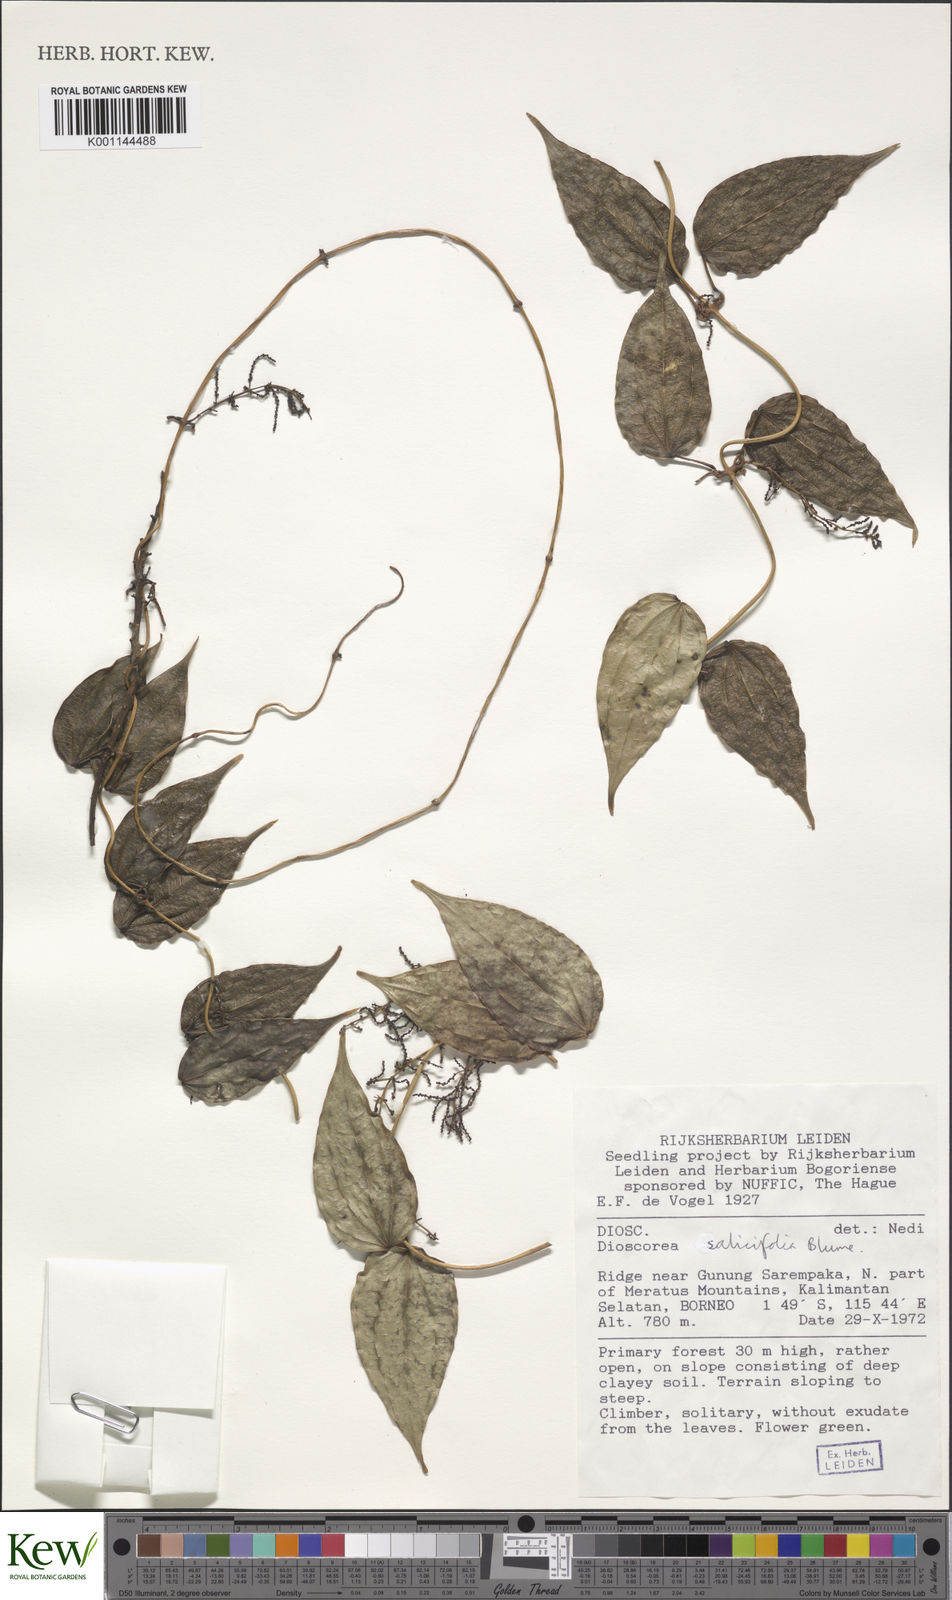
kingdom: Plantae
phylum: Tracheophyta
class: Liliopsida
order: Dioscoreales
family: Dioscoreaceae
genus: Dioscorea
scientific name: Dioscorea salicifolia
